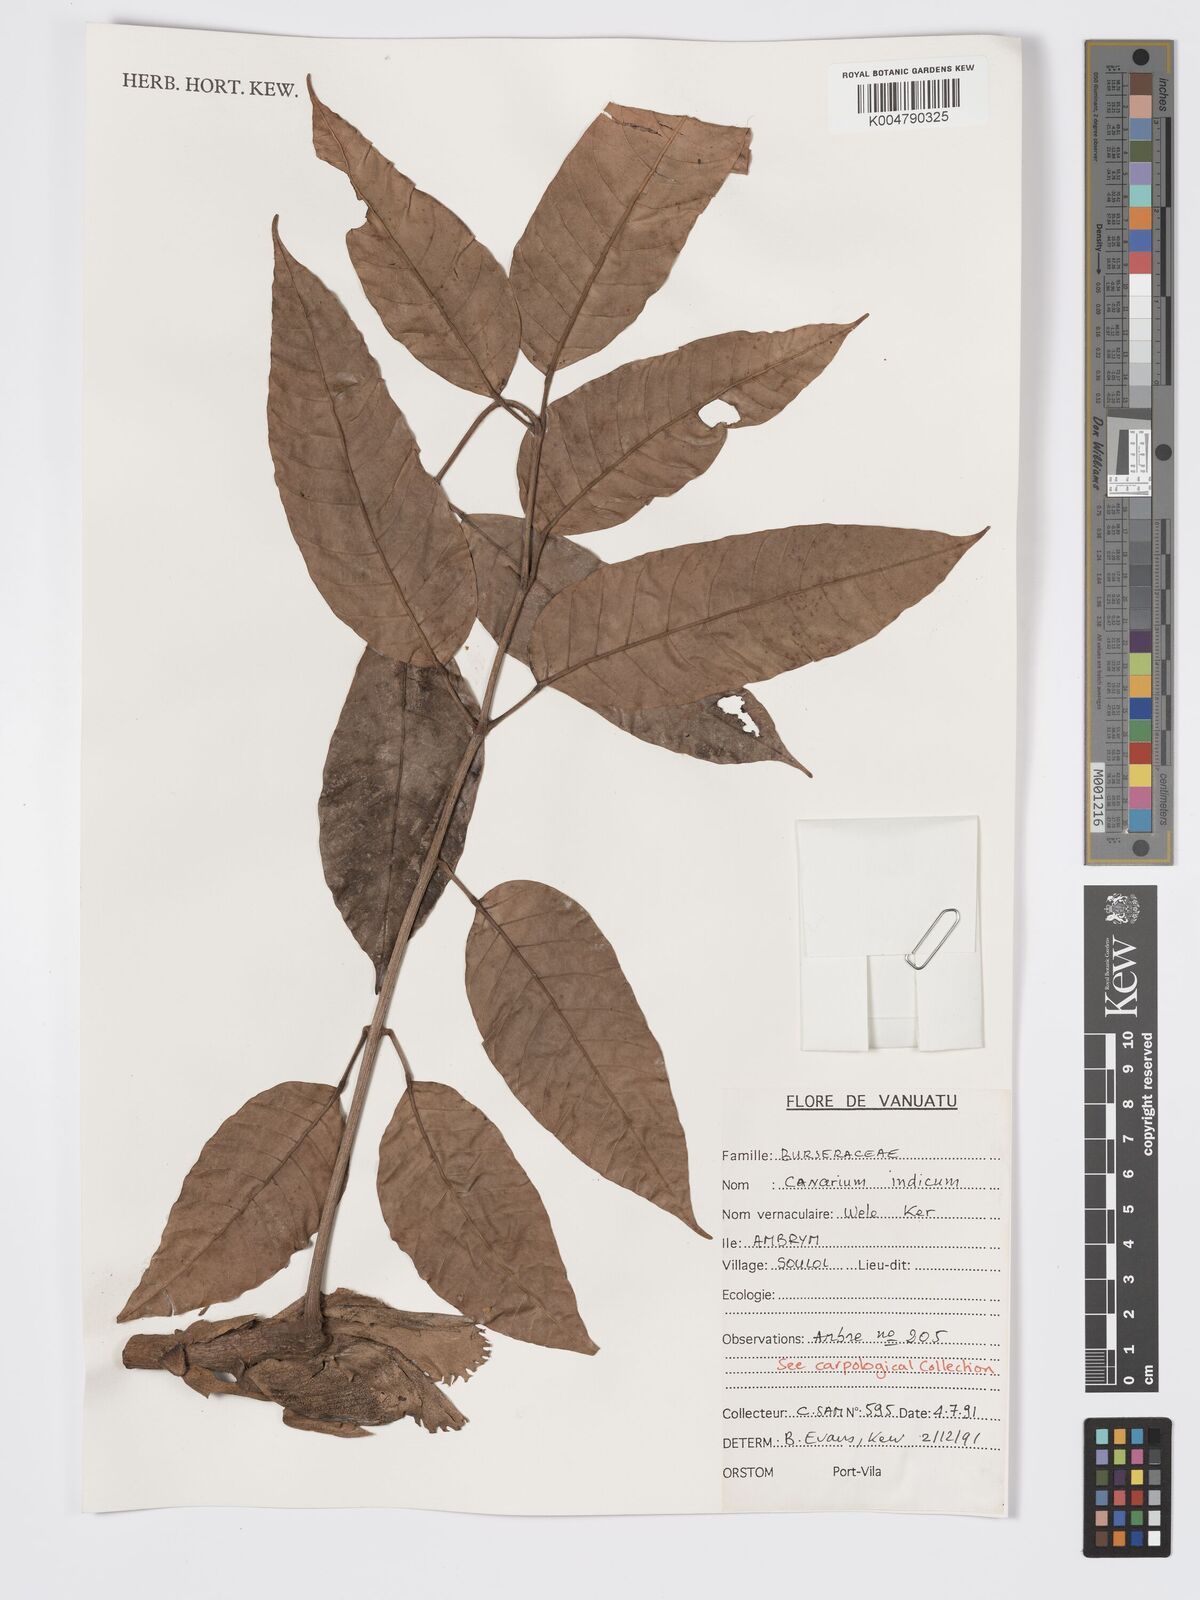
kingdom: Plantae
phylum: Tracheophyta
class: Magnoliopsida
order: Sapindales
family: Burseraceae
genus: Canarium
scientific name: Canarium indicum
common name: Canarium-nut
